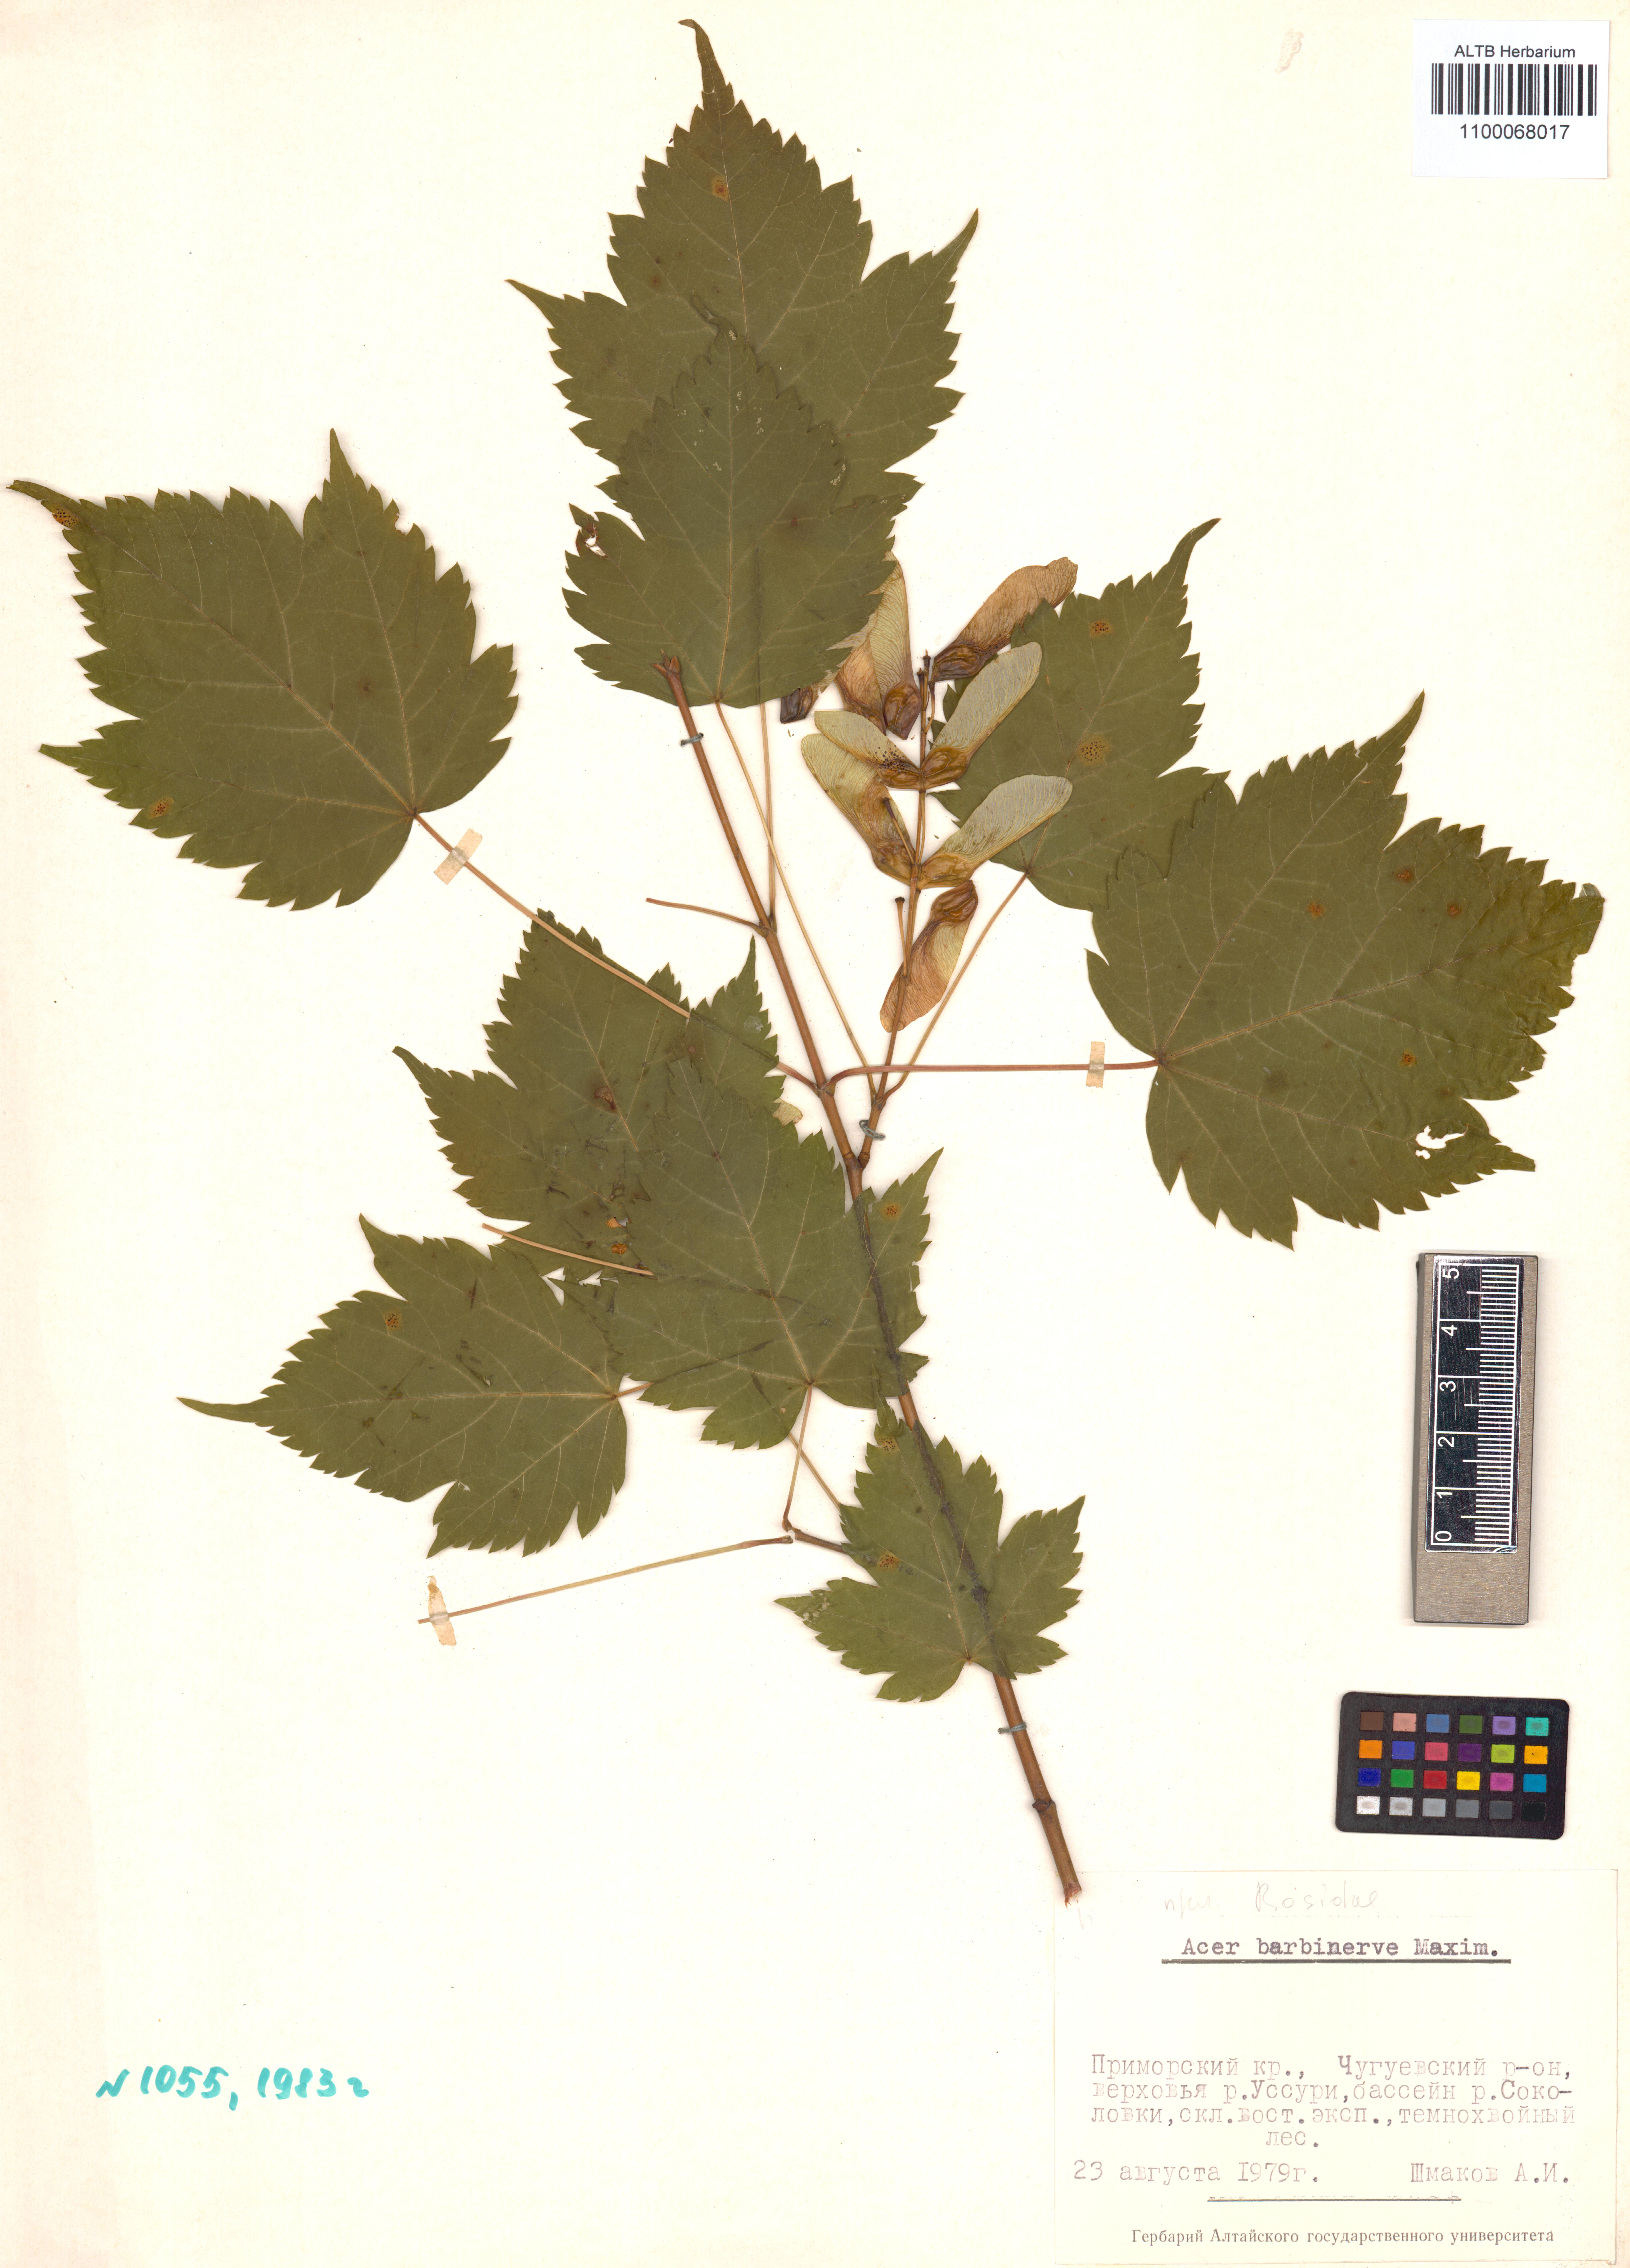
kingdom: Plantae
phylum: Tracheophyta
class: Magnoliopsida
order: Sapindales
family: Sapindaceae
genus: Acer
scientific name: Acer barbinerve
